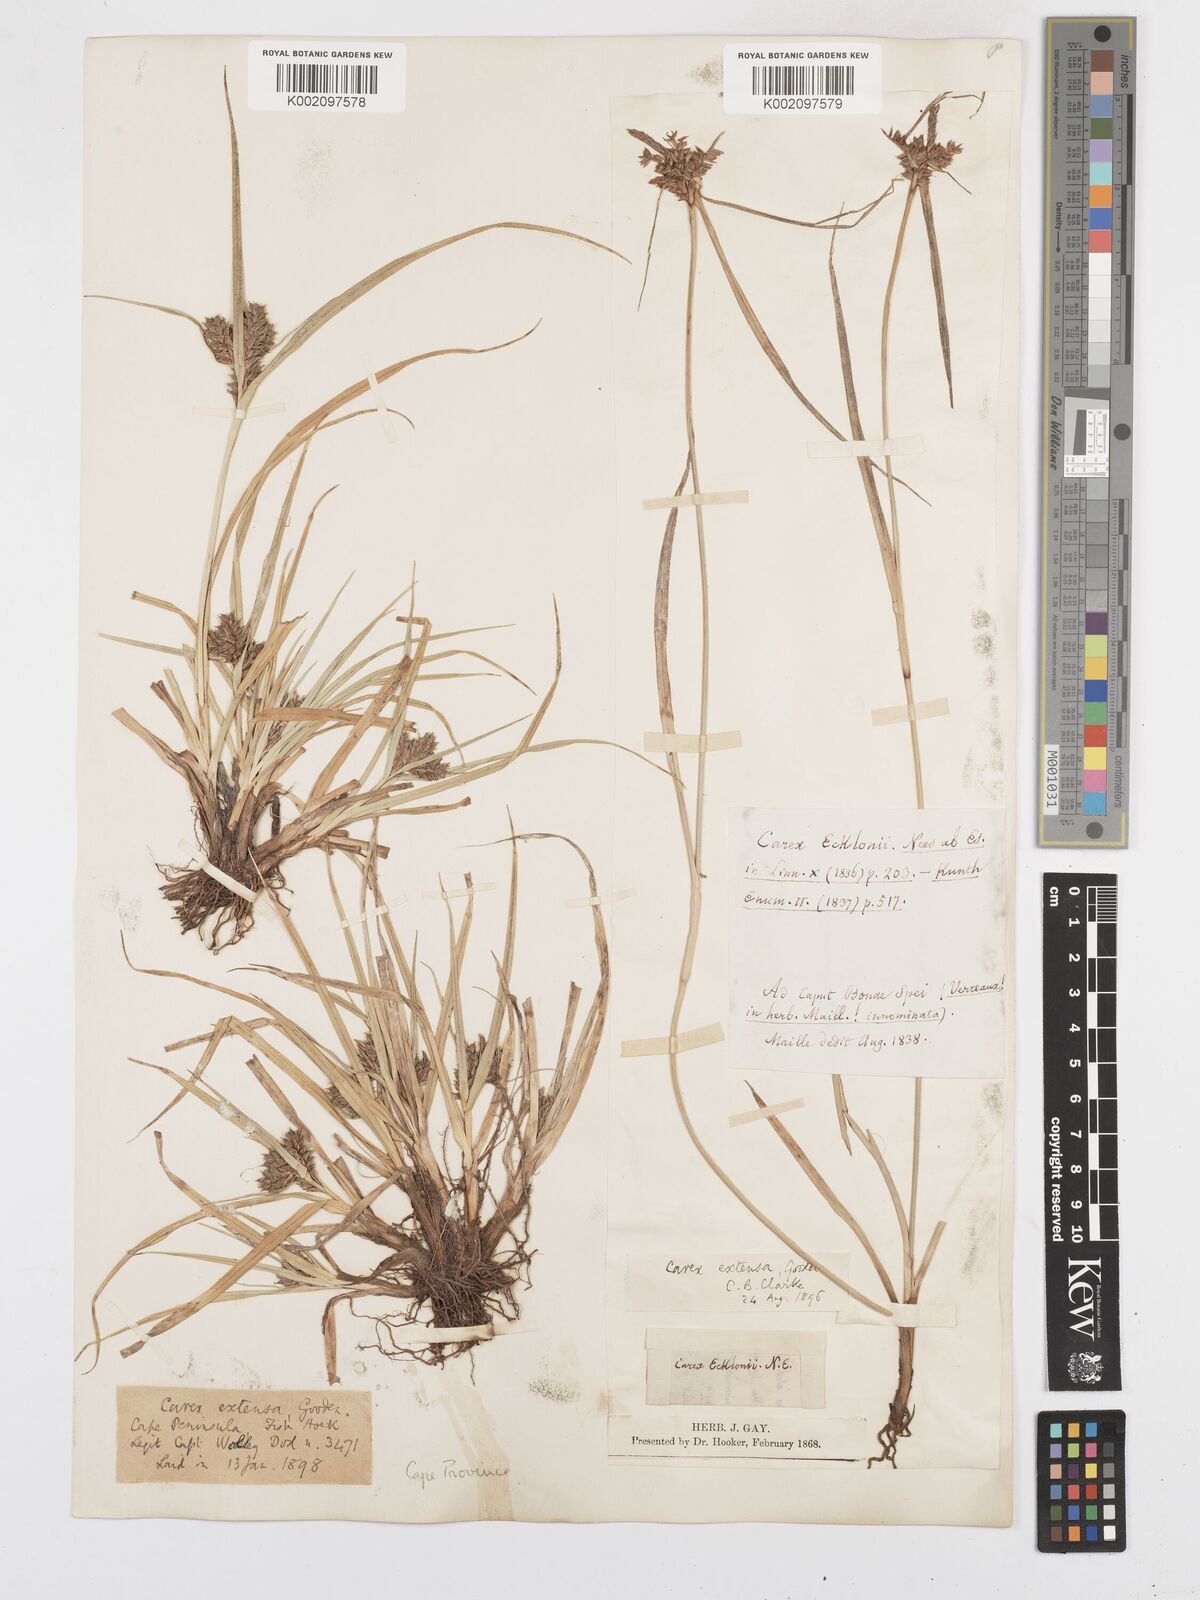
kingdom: Plantae
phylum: Tracheophyta
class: Liliopsida
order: Poales
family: Cyperaceae
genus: Carex
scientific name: Carex extensa
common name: Long-bracted sedge
